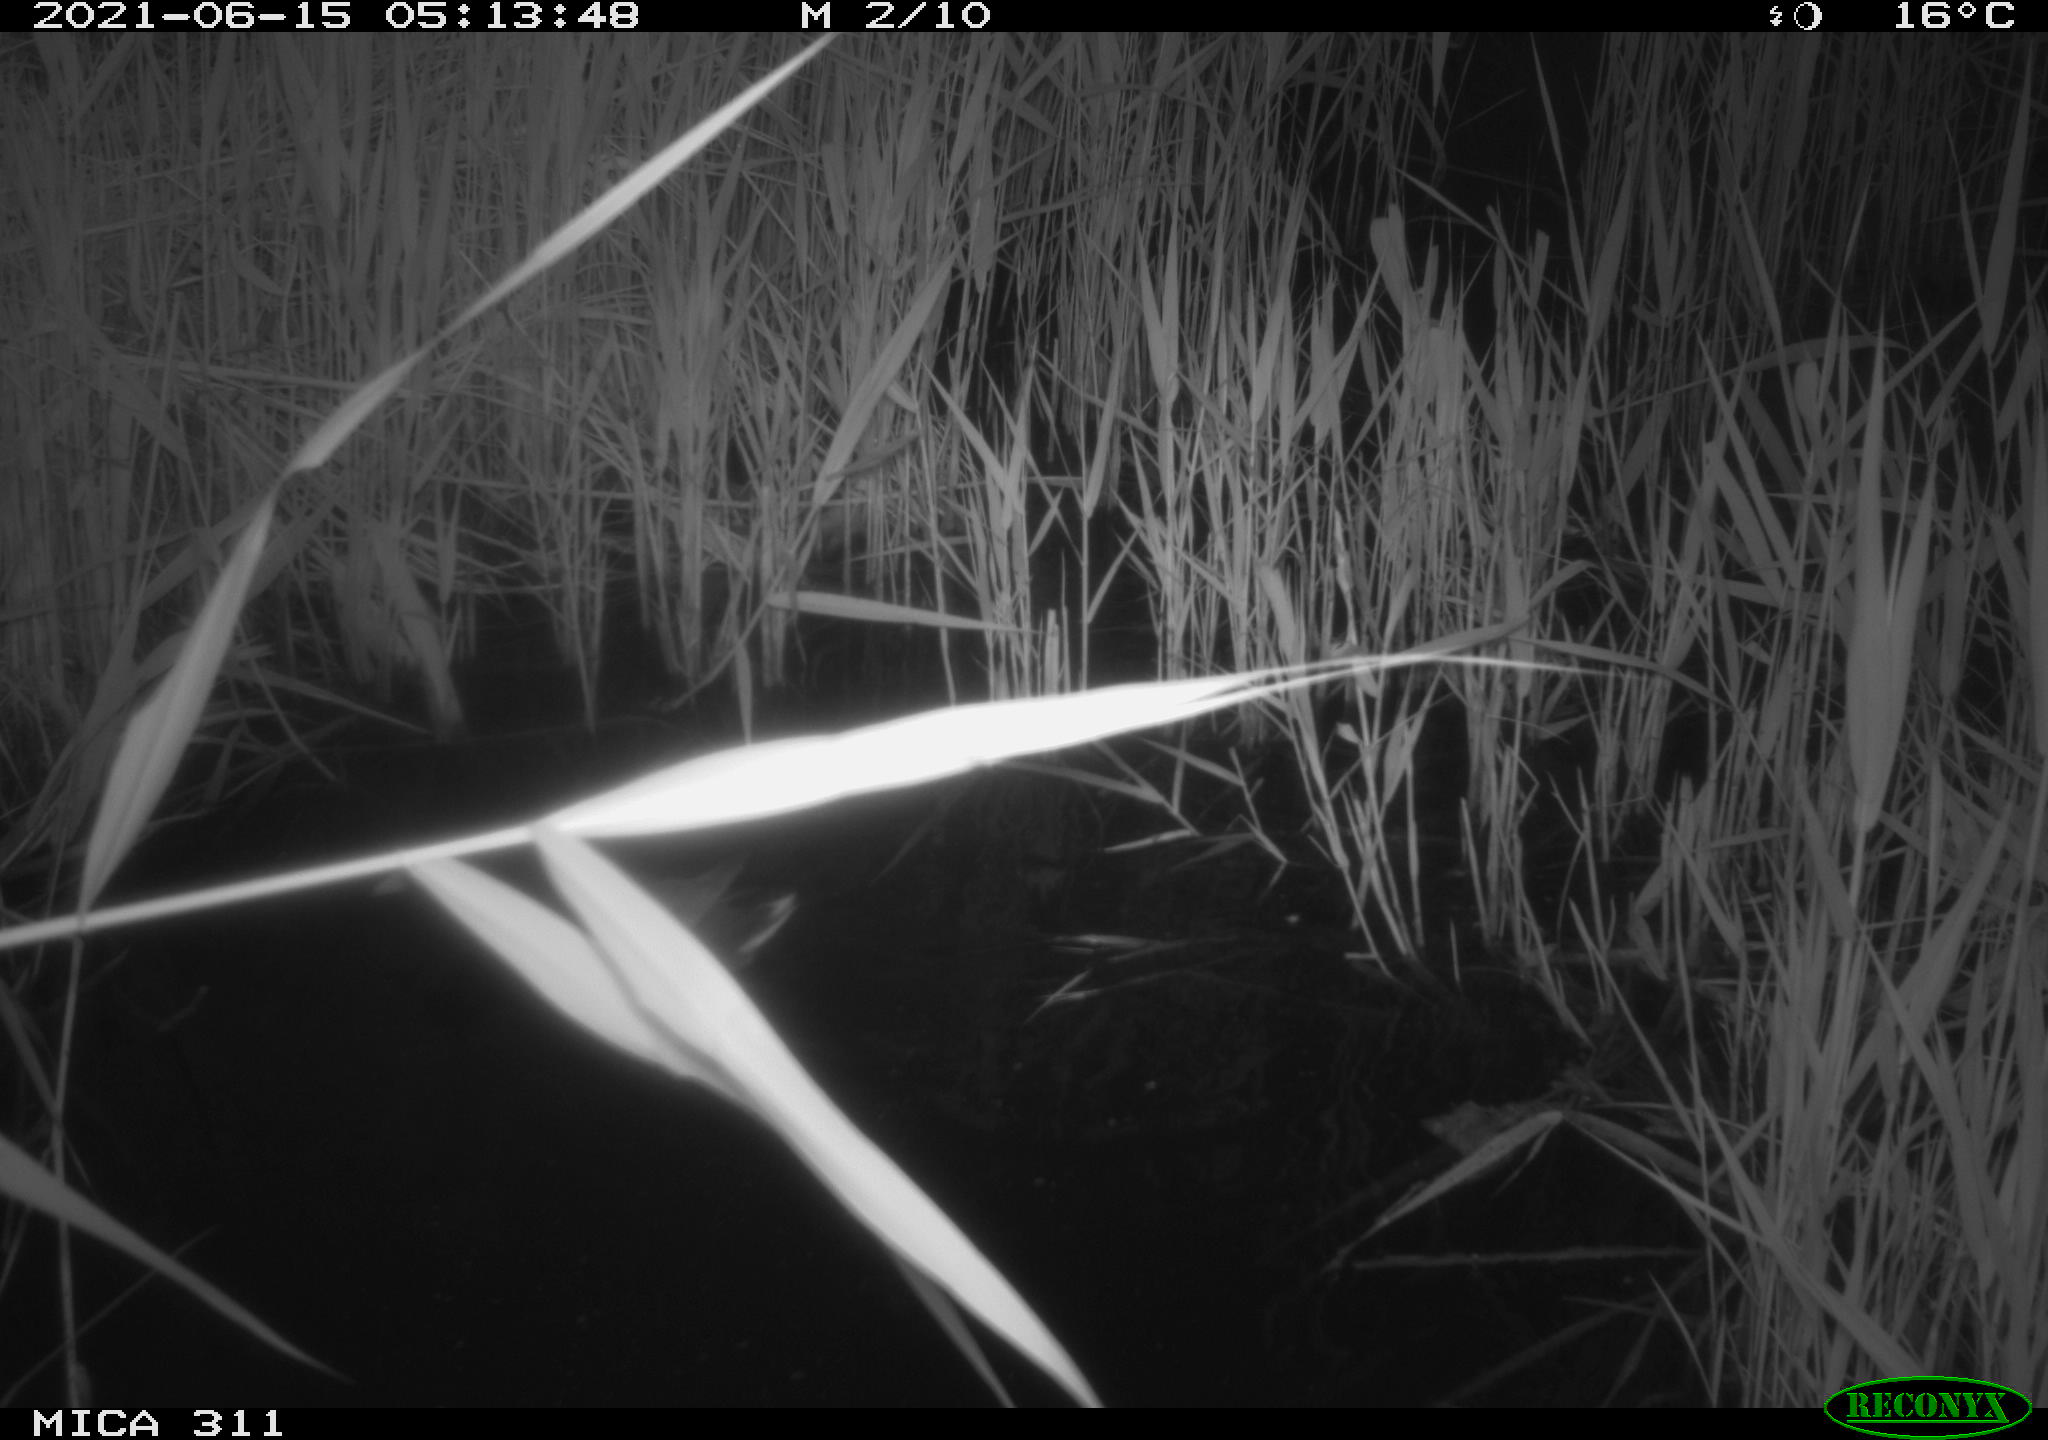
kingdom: Animalia
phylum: Chordata
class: Aves
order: Gruiformes
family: Rallidae
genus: Gallinula
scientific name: Gallinula chloropus
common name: Common moorhen
